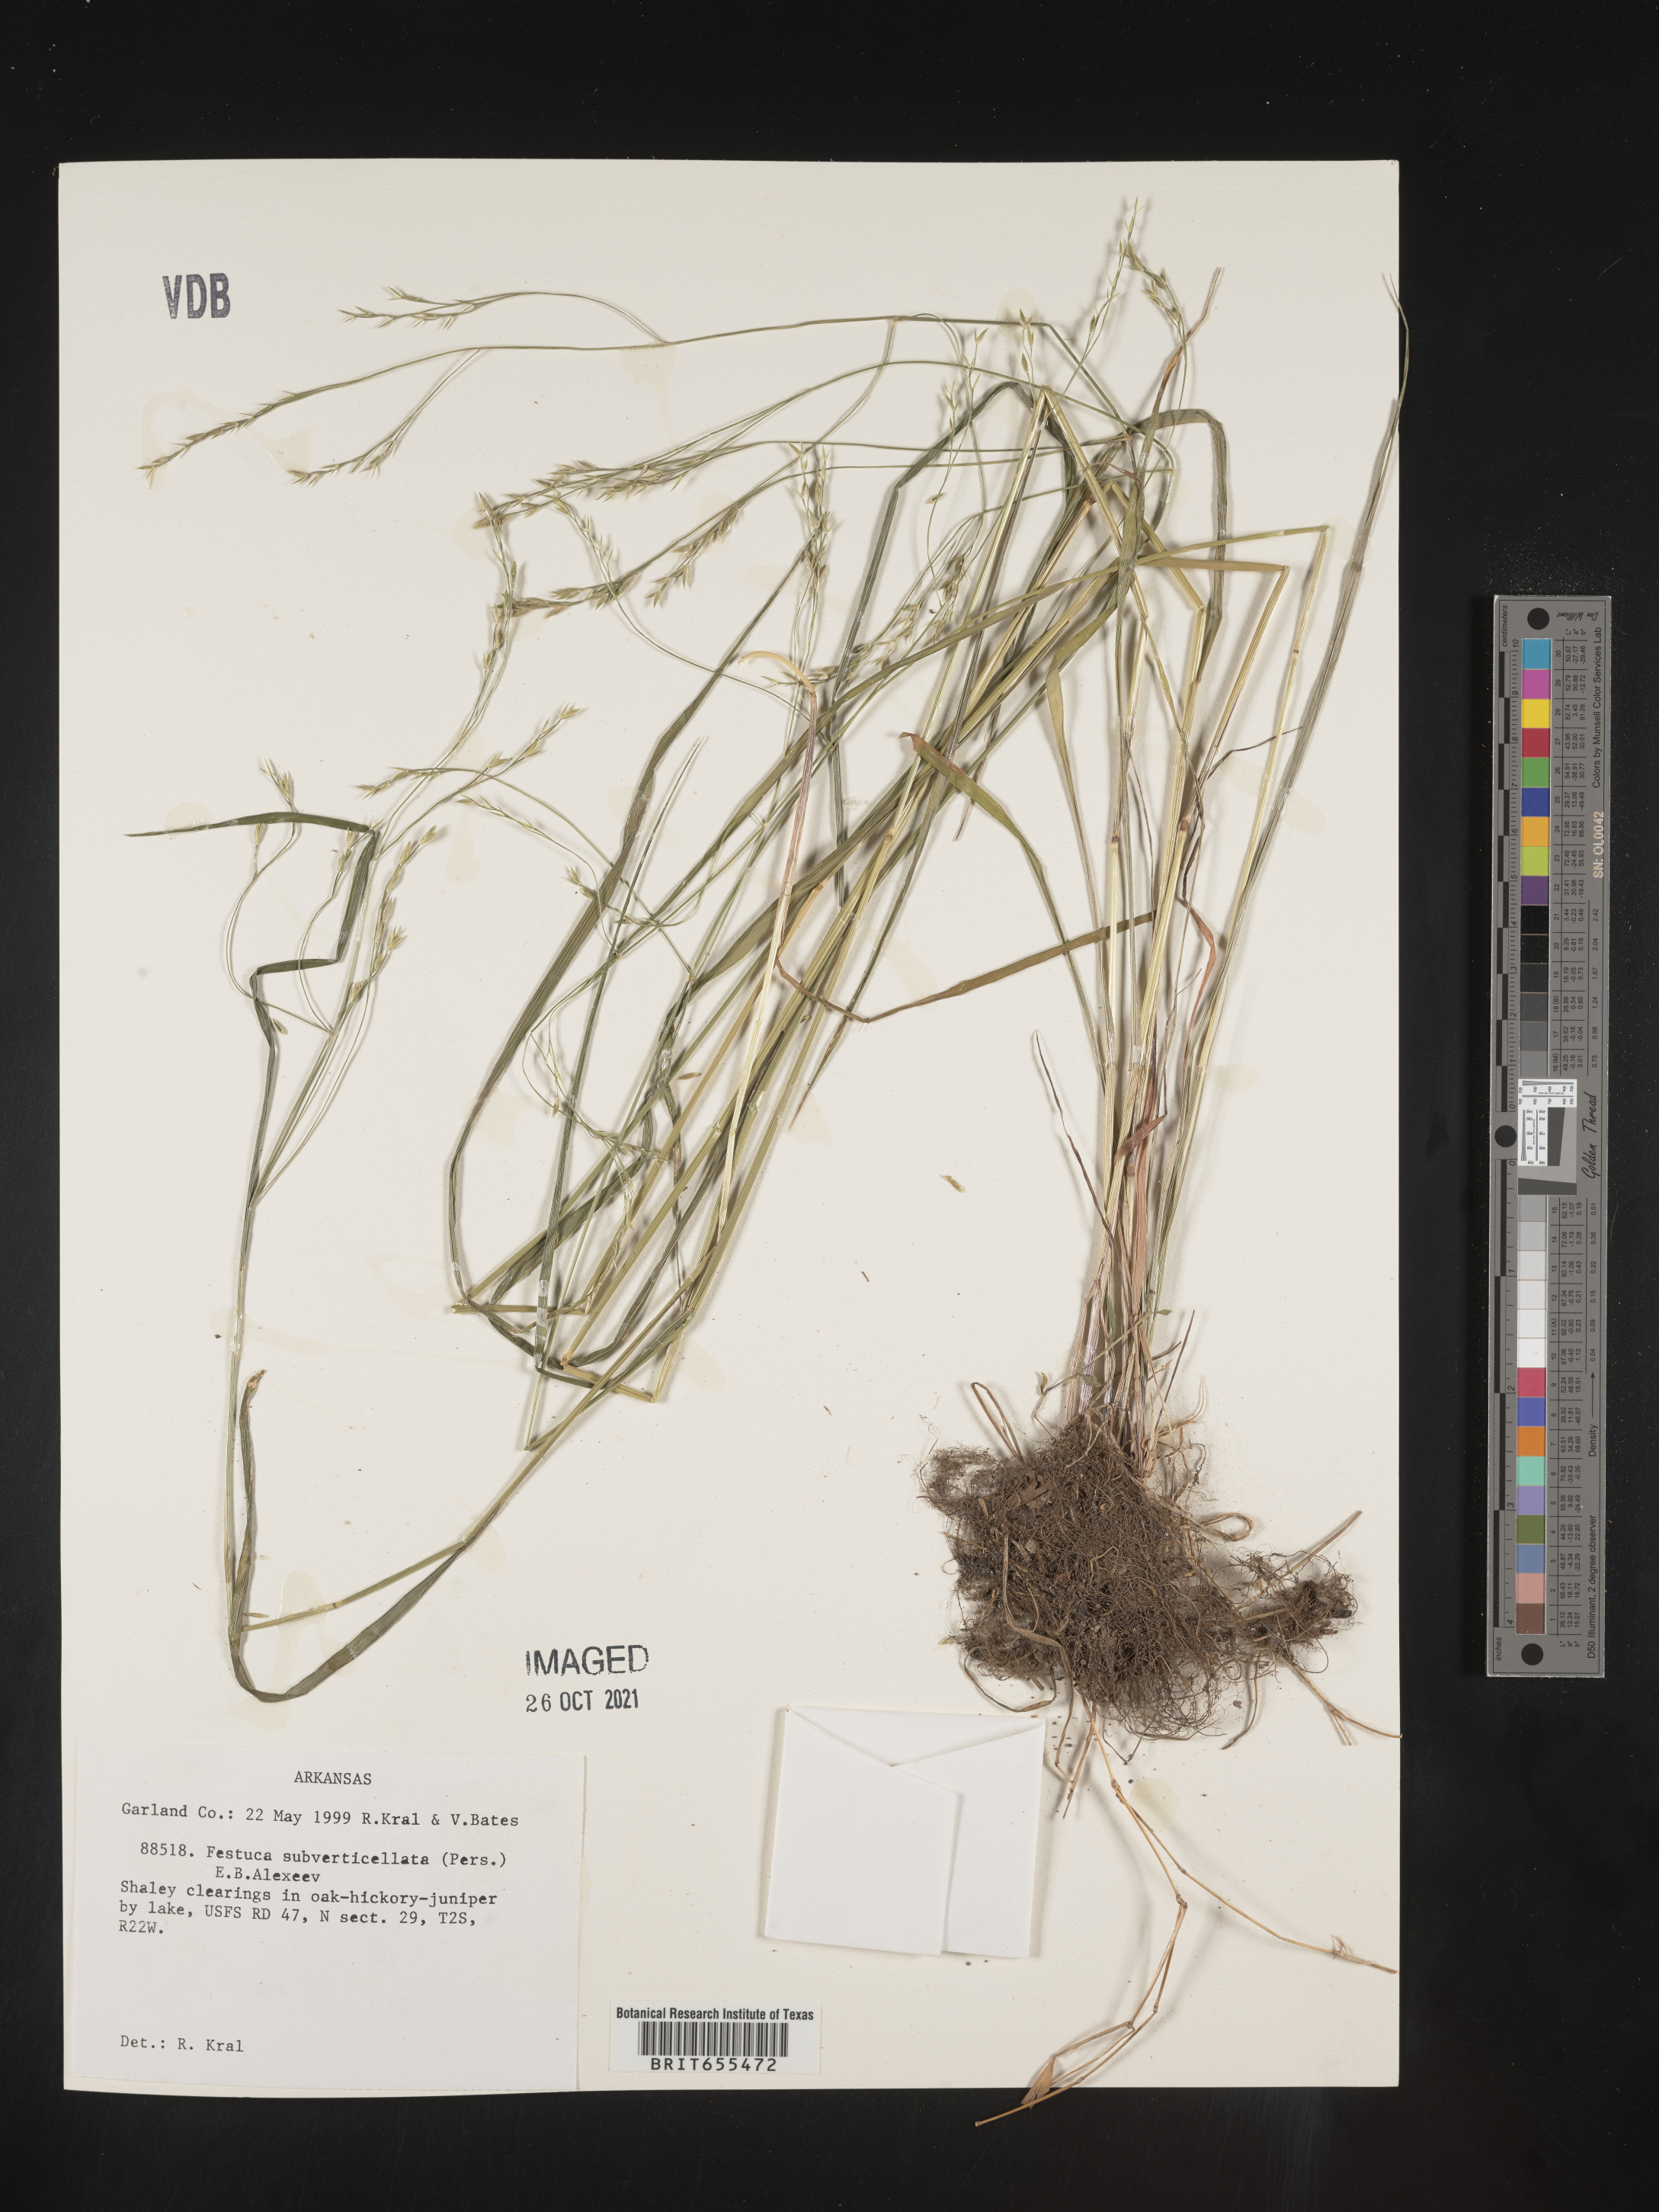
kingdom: Plantae
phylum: Tracheophyta
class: Liliopsida
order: Poales
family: Poaceae
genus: Festuca
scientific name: Festuca
